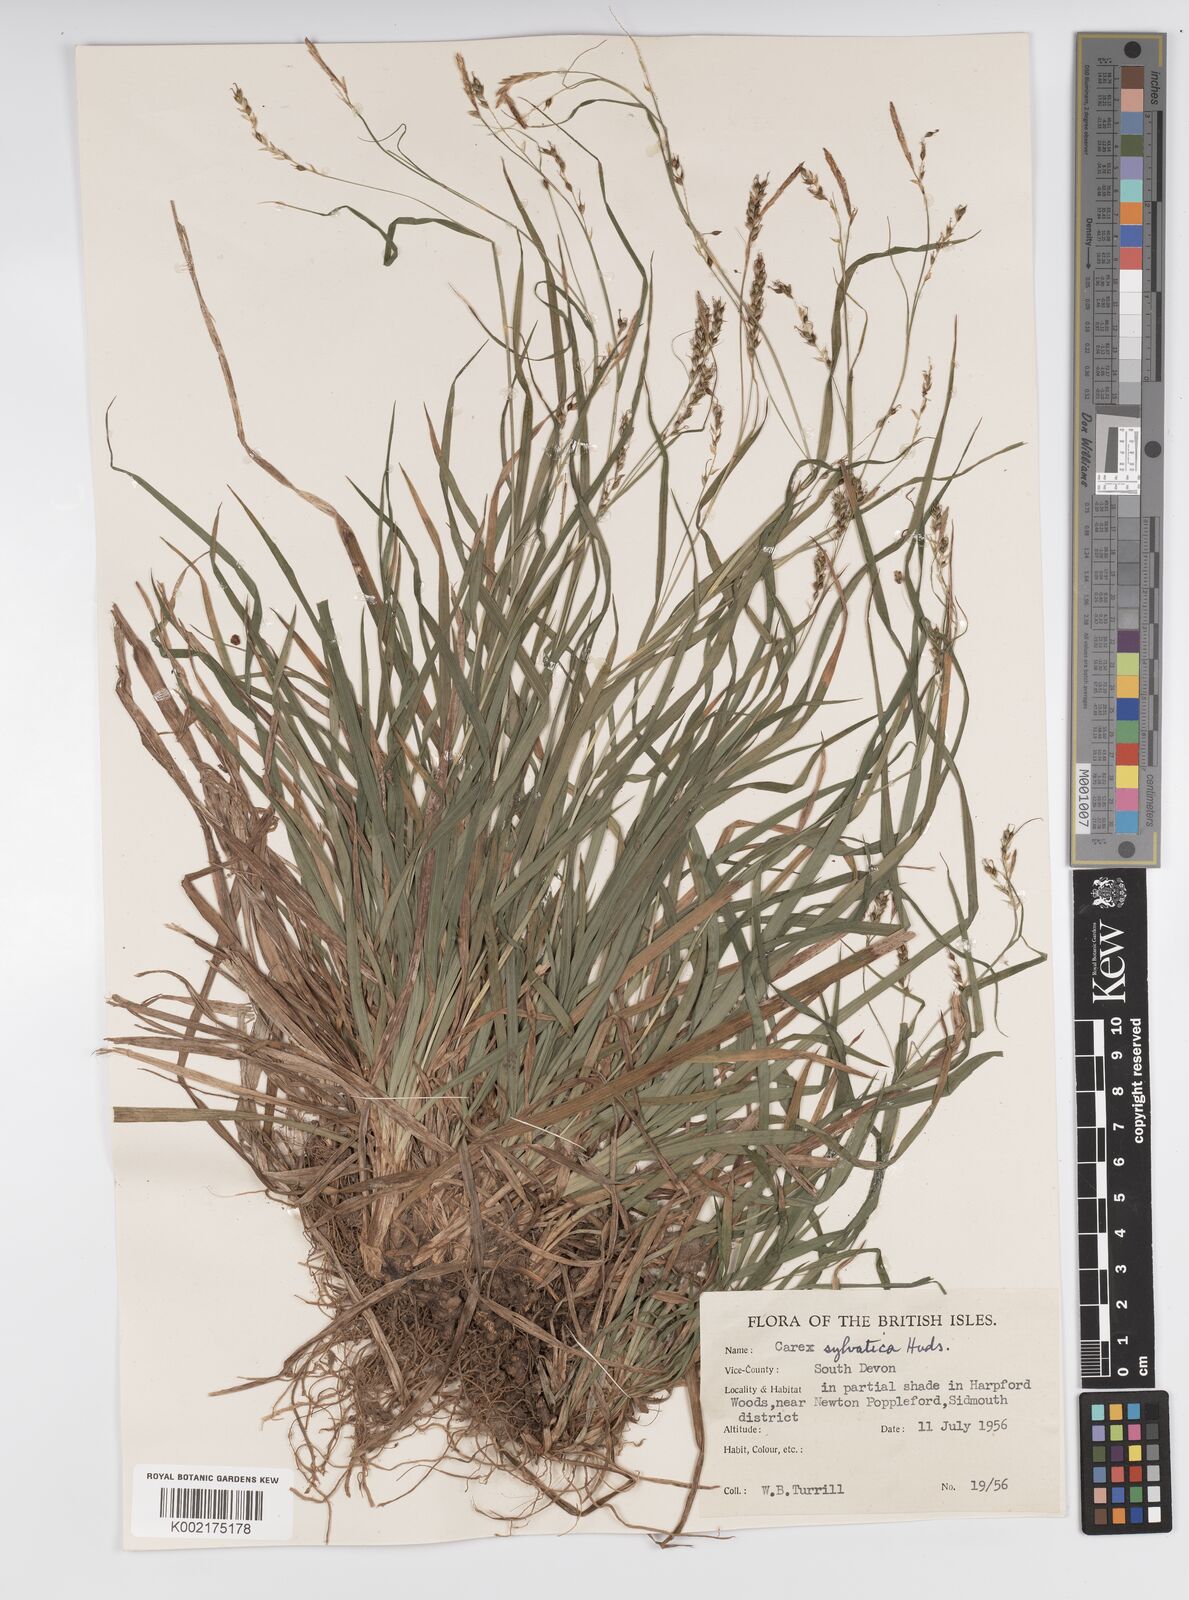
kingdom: Plantae
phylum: Tracheophyta
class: Liliopsida
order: Poales
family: Cyperaceae
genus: Carex
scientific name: Carex sylvatica
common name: Wood-sedge
